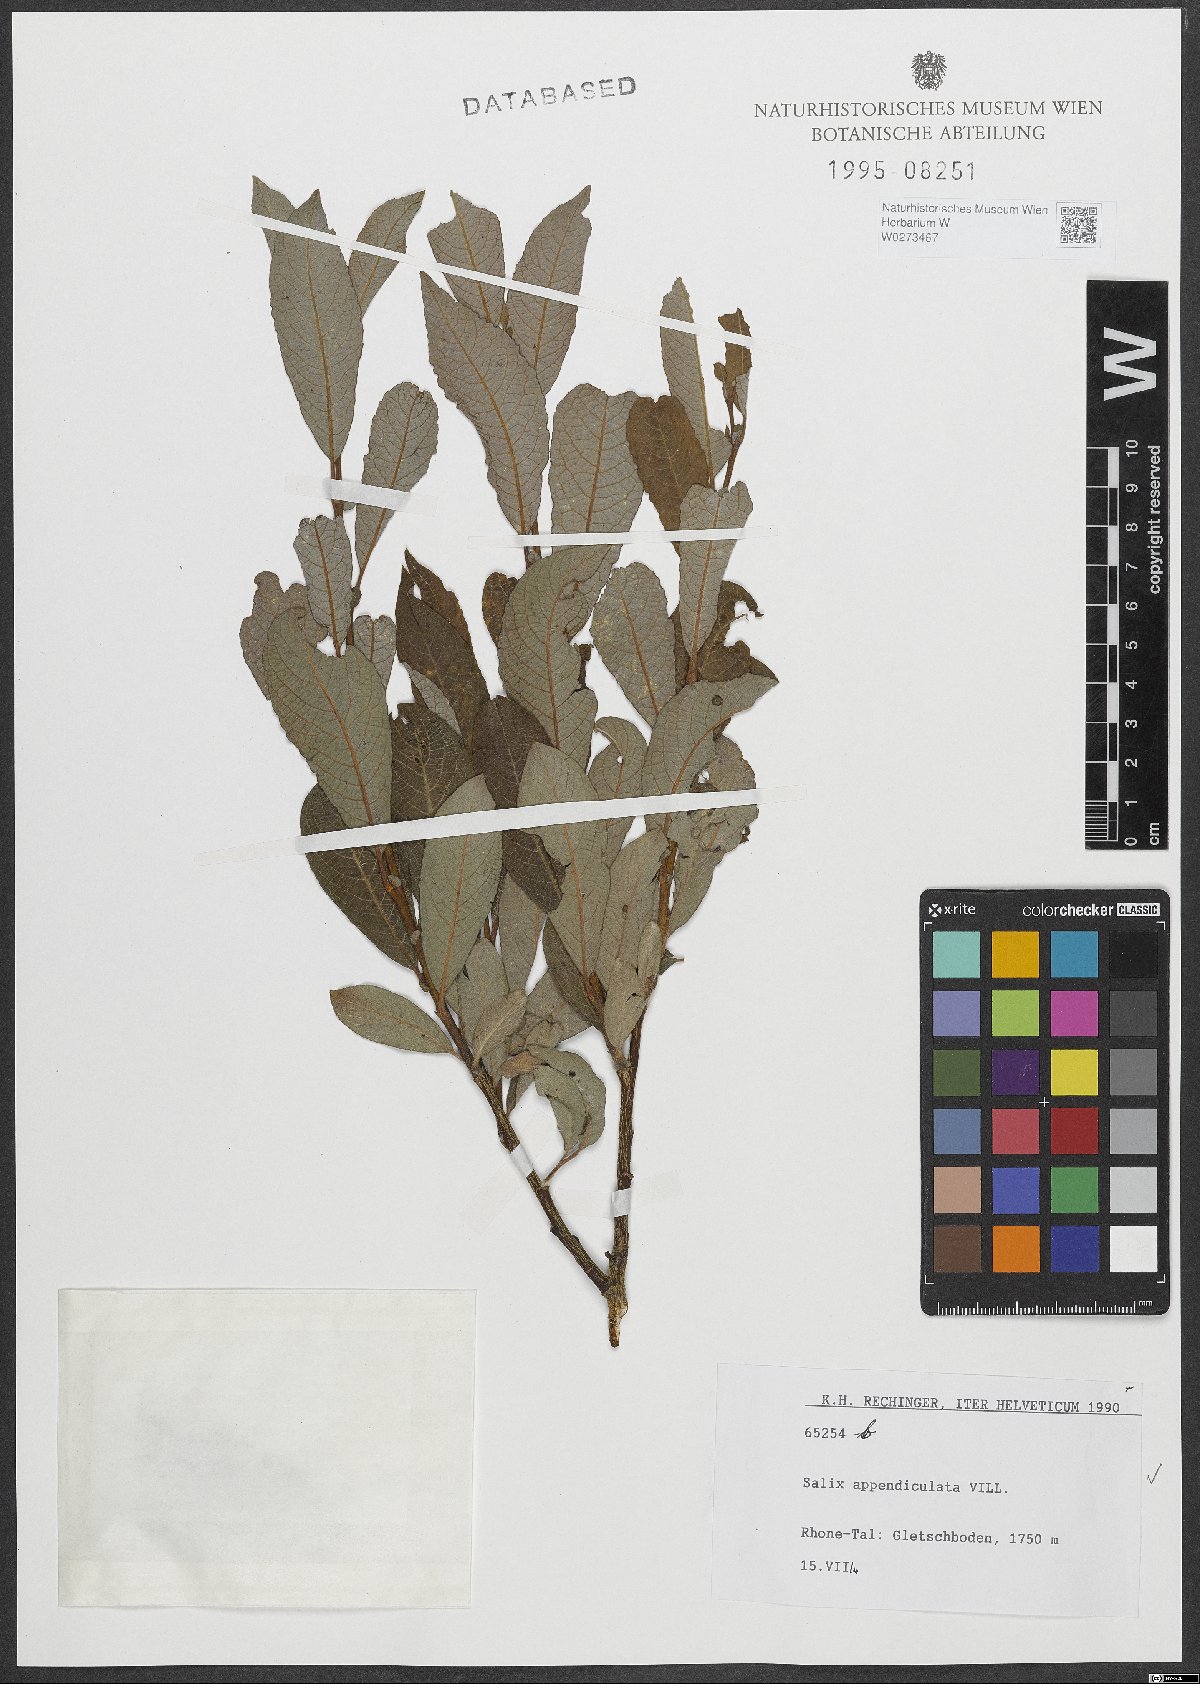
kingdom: Plantae
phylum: Tracheophyta
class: Magnoliopsida
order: Malpighiales
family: Salicaceae
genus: Salix
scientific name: Salix appendiculata
